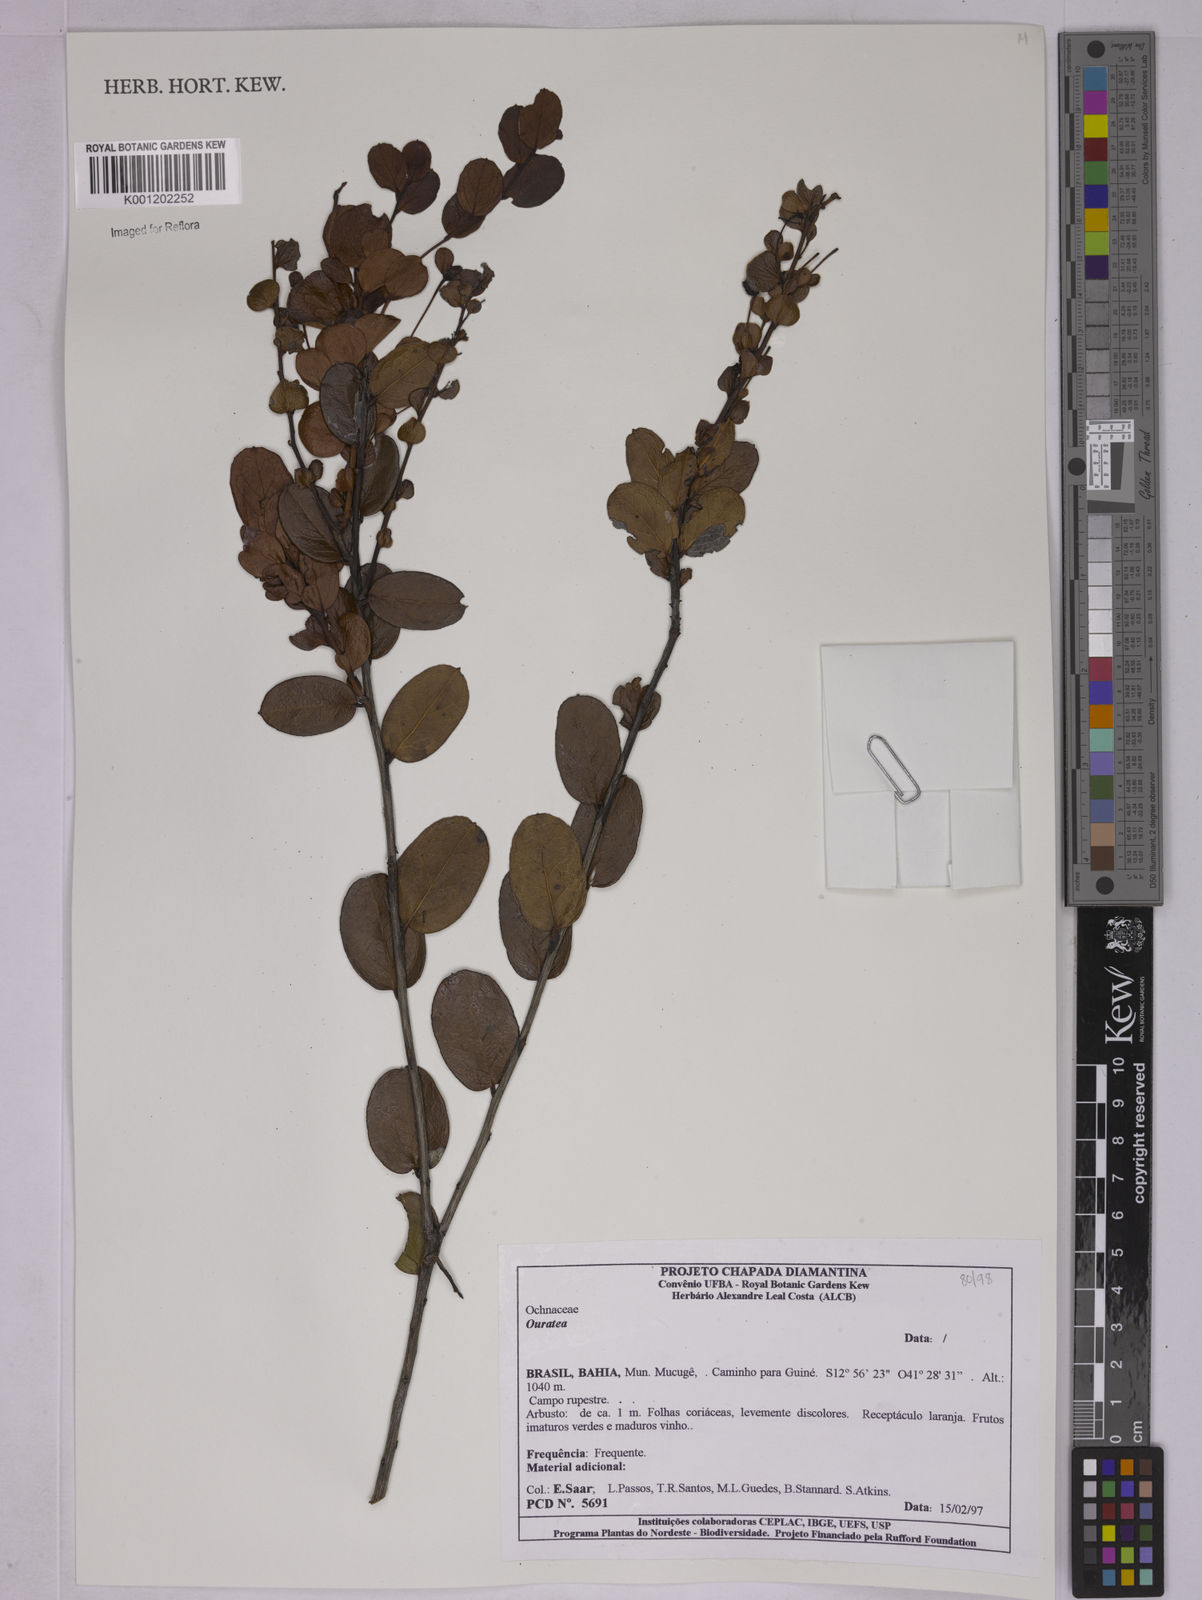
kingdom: Plantae
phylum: Tracheophyta
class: Magnoliopsida
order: Malpighiales
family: Ochnaceae
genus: Ouratea
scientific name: Ouratea
